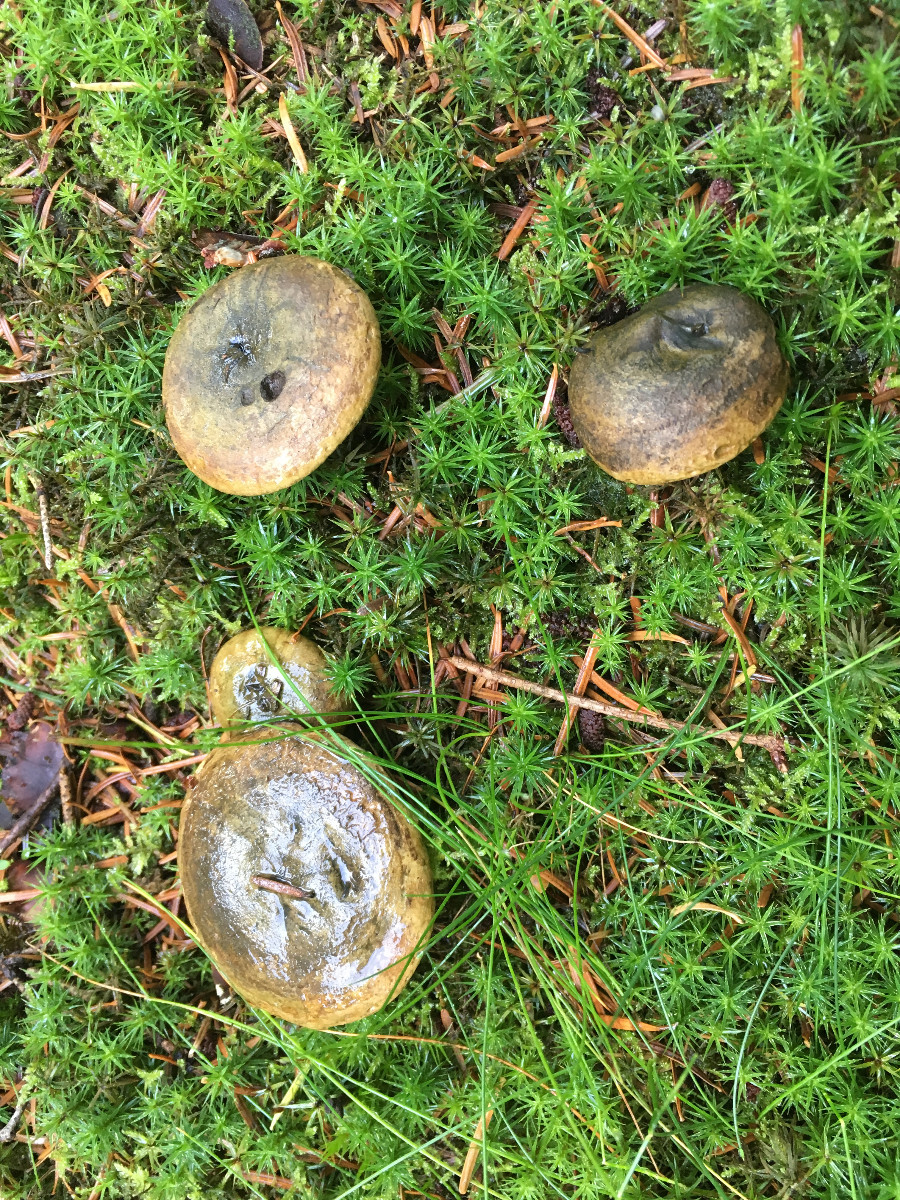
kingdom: Fungi
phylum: Basidiomycota
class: Agaricomycetes
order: Russulales
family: Russulaceae
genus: Lactarius
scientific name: Lactarius necator
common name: manddraber-mælkehat
